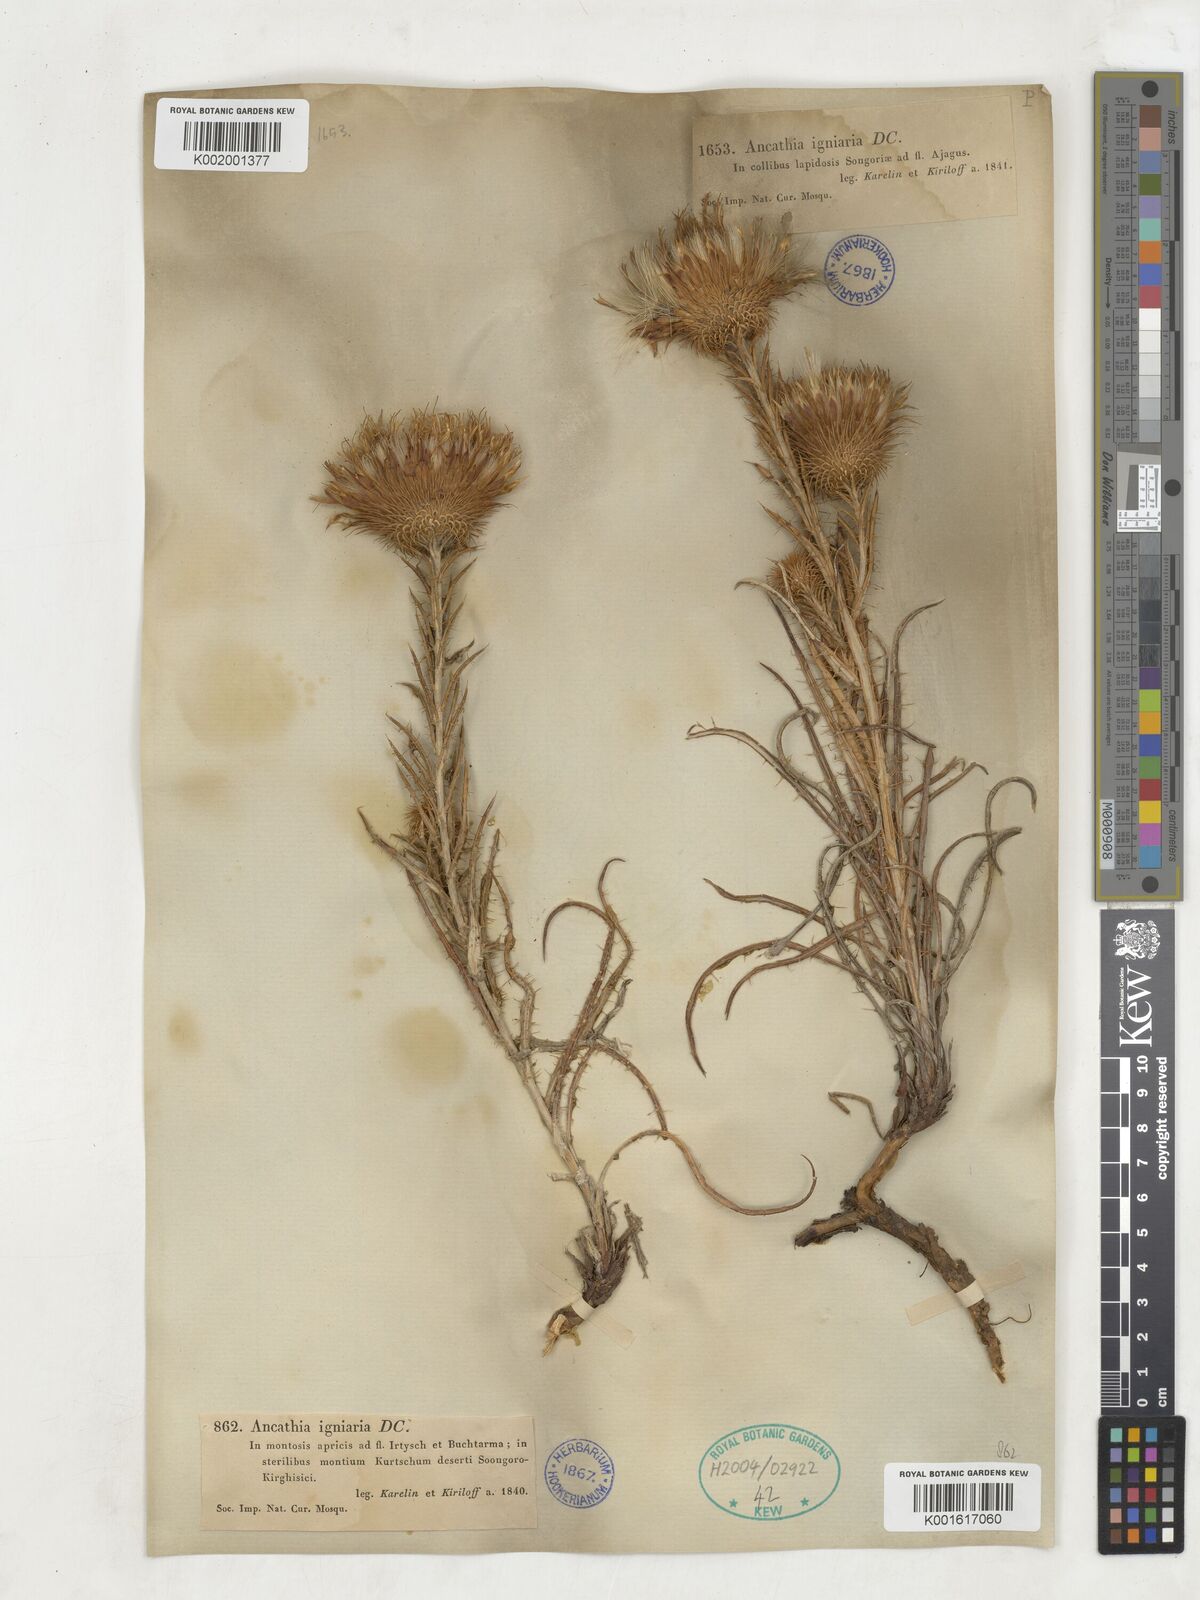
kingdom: Plantae
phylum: Tracheophyta
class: Magnoliopsida
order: Asterales
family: Asteraceae
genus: Ancathia
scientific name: Ancathia igniaria
